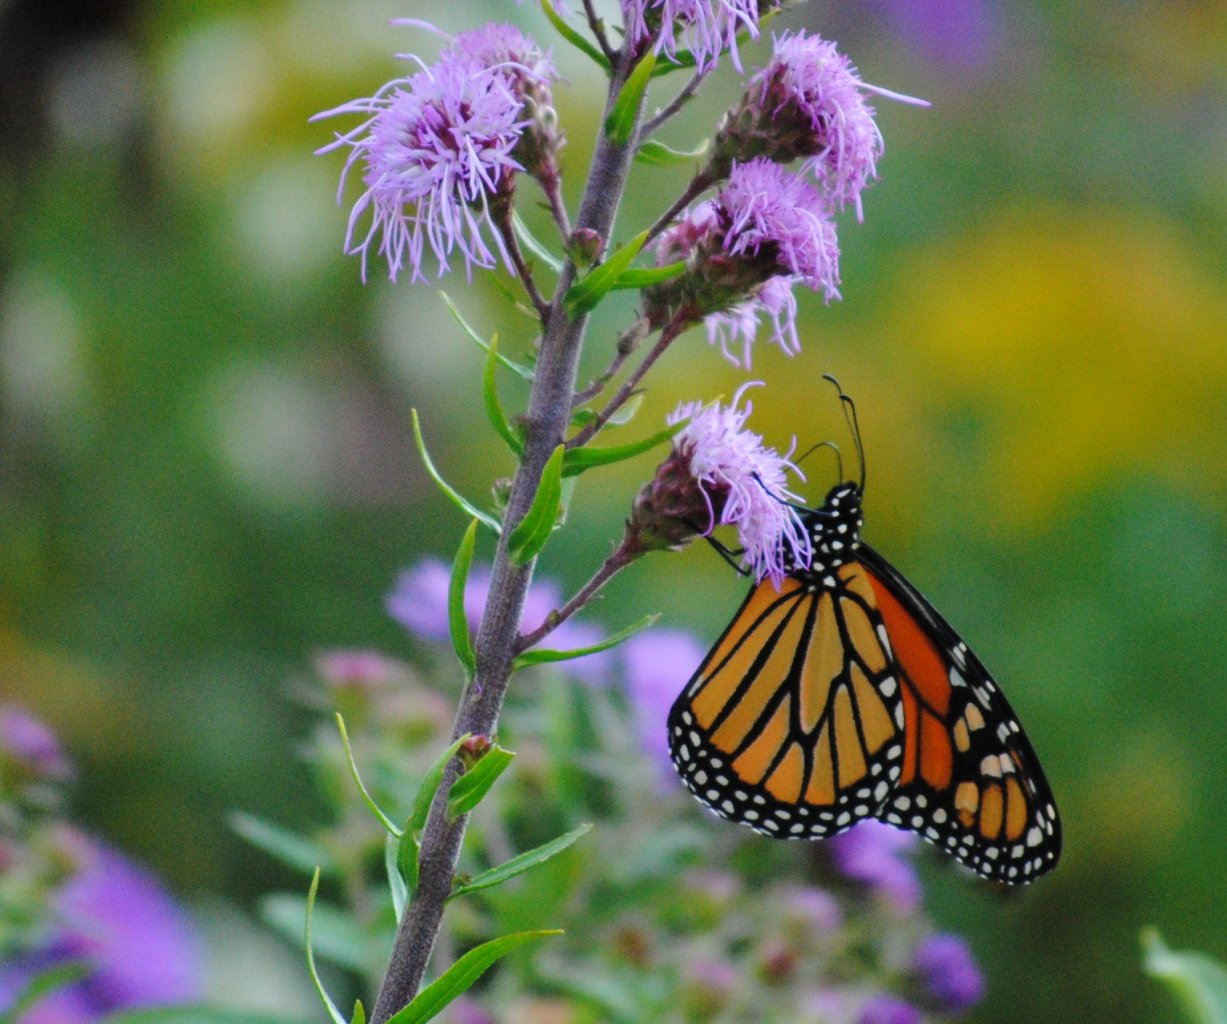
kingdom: Animalia
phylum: Arthropoda
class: Insecta
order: Lepidoptera
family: Nymphalidae
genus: Danaus
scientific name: Danaus plexippus
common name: Monarch
